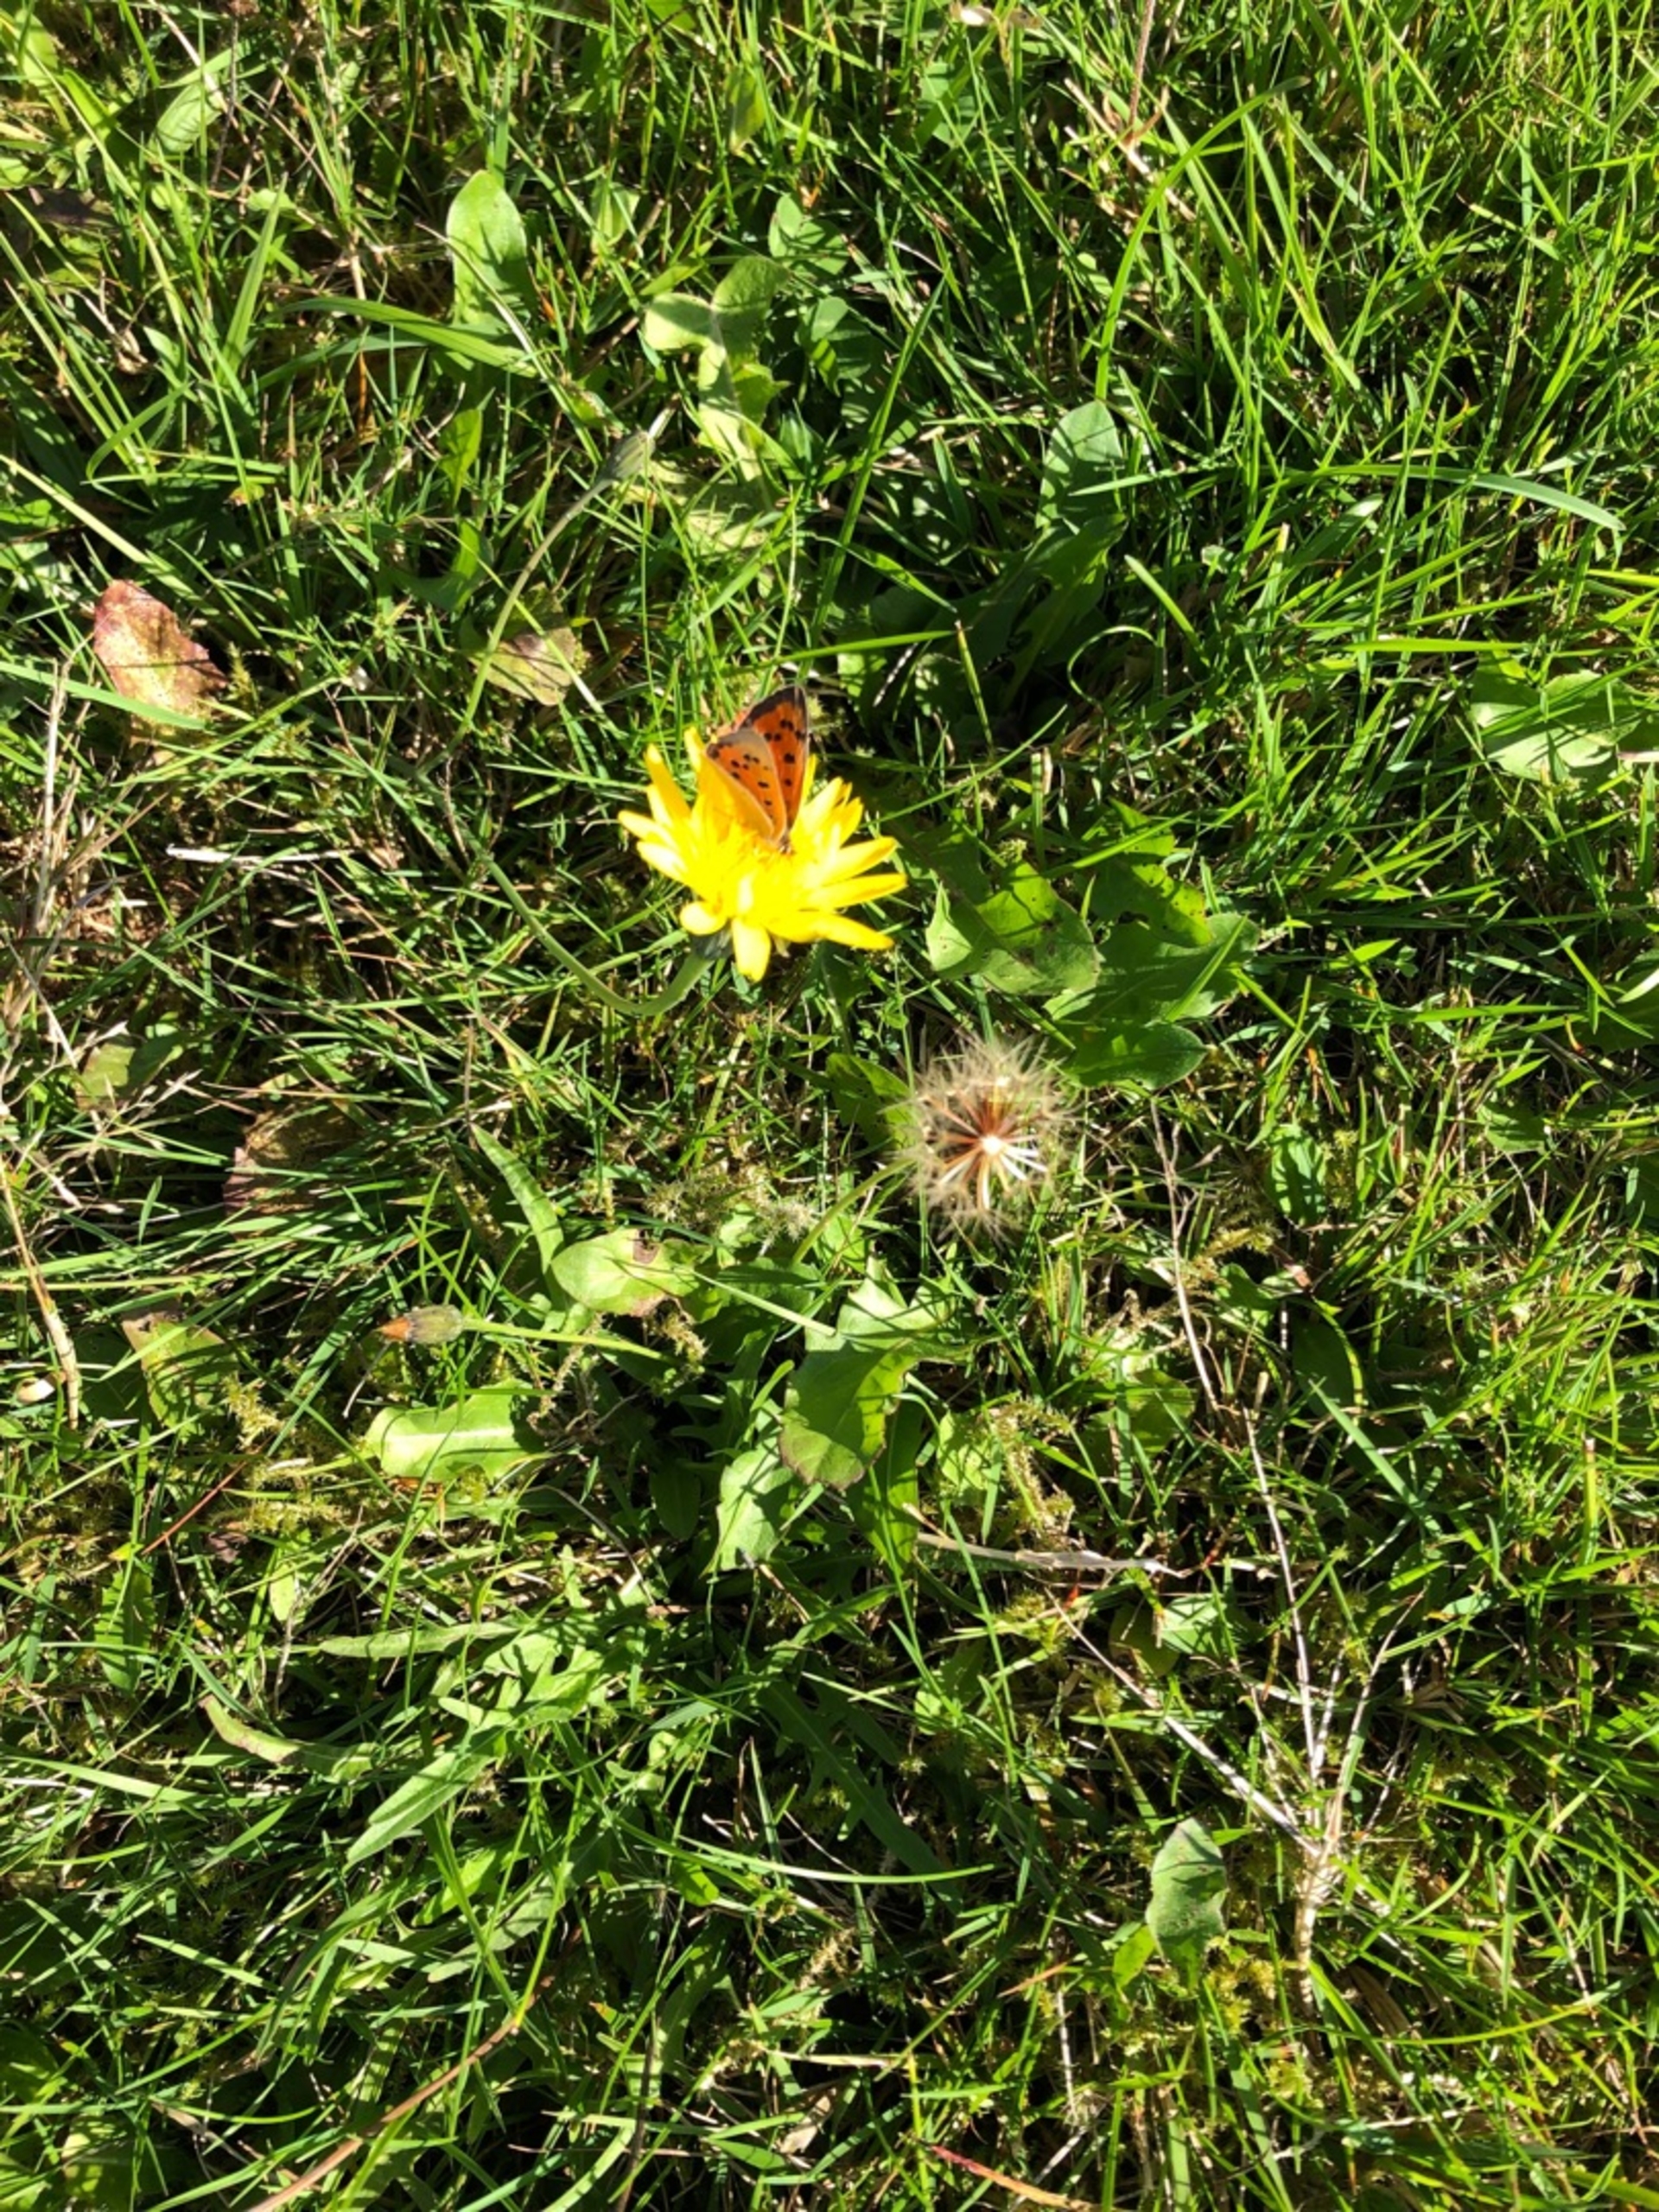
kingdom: Animalia
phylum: Arthropoda
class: Insecta
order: Lepidoptera
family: Lycaenidae
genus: Lycaena
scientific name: Lycaena phlaeas
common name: Lille ildfugl
